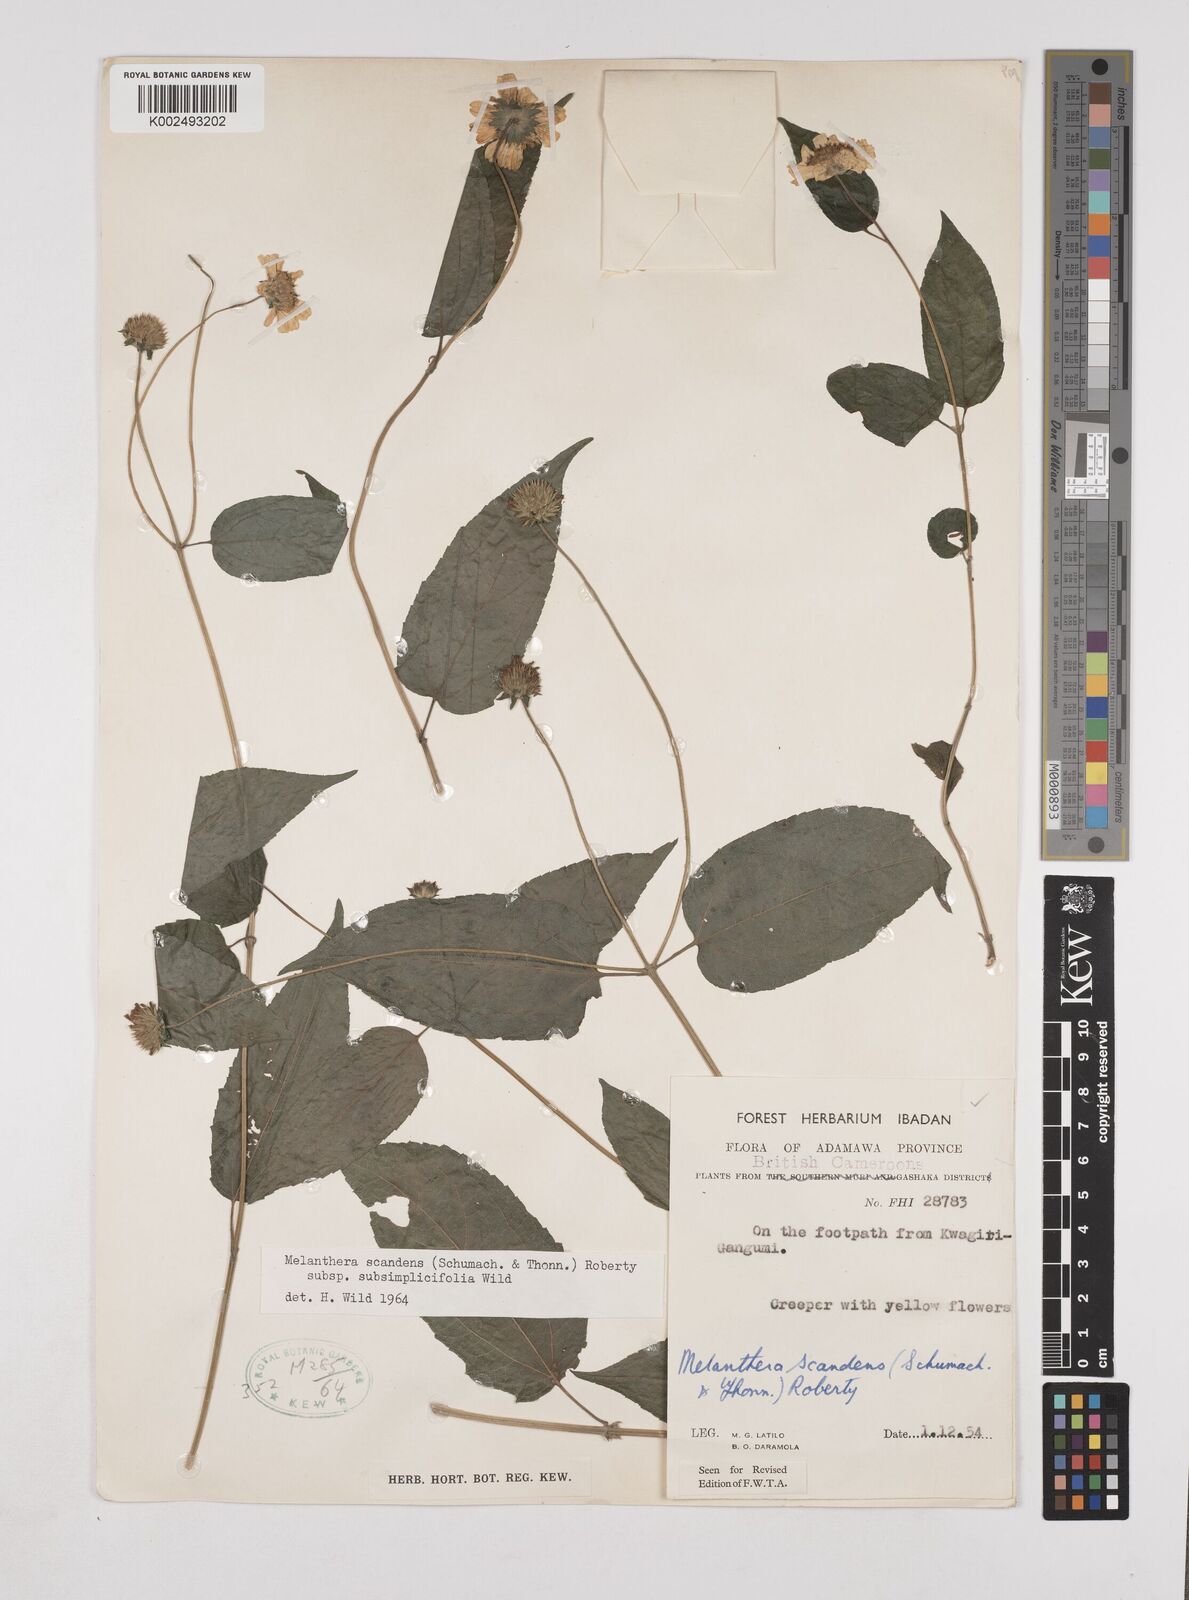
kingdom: Plantae
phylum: Tracheophyta
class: Magnoliopsida
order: Asterales
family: Asteraceae
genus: Lipotriche
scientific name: Lipotriche scandens
